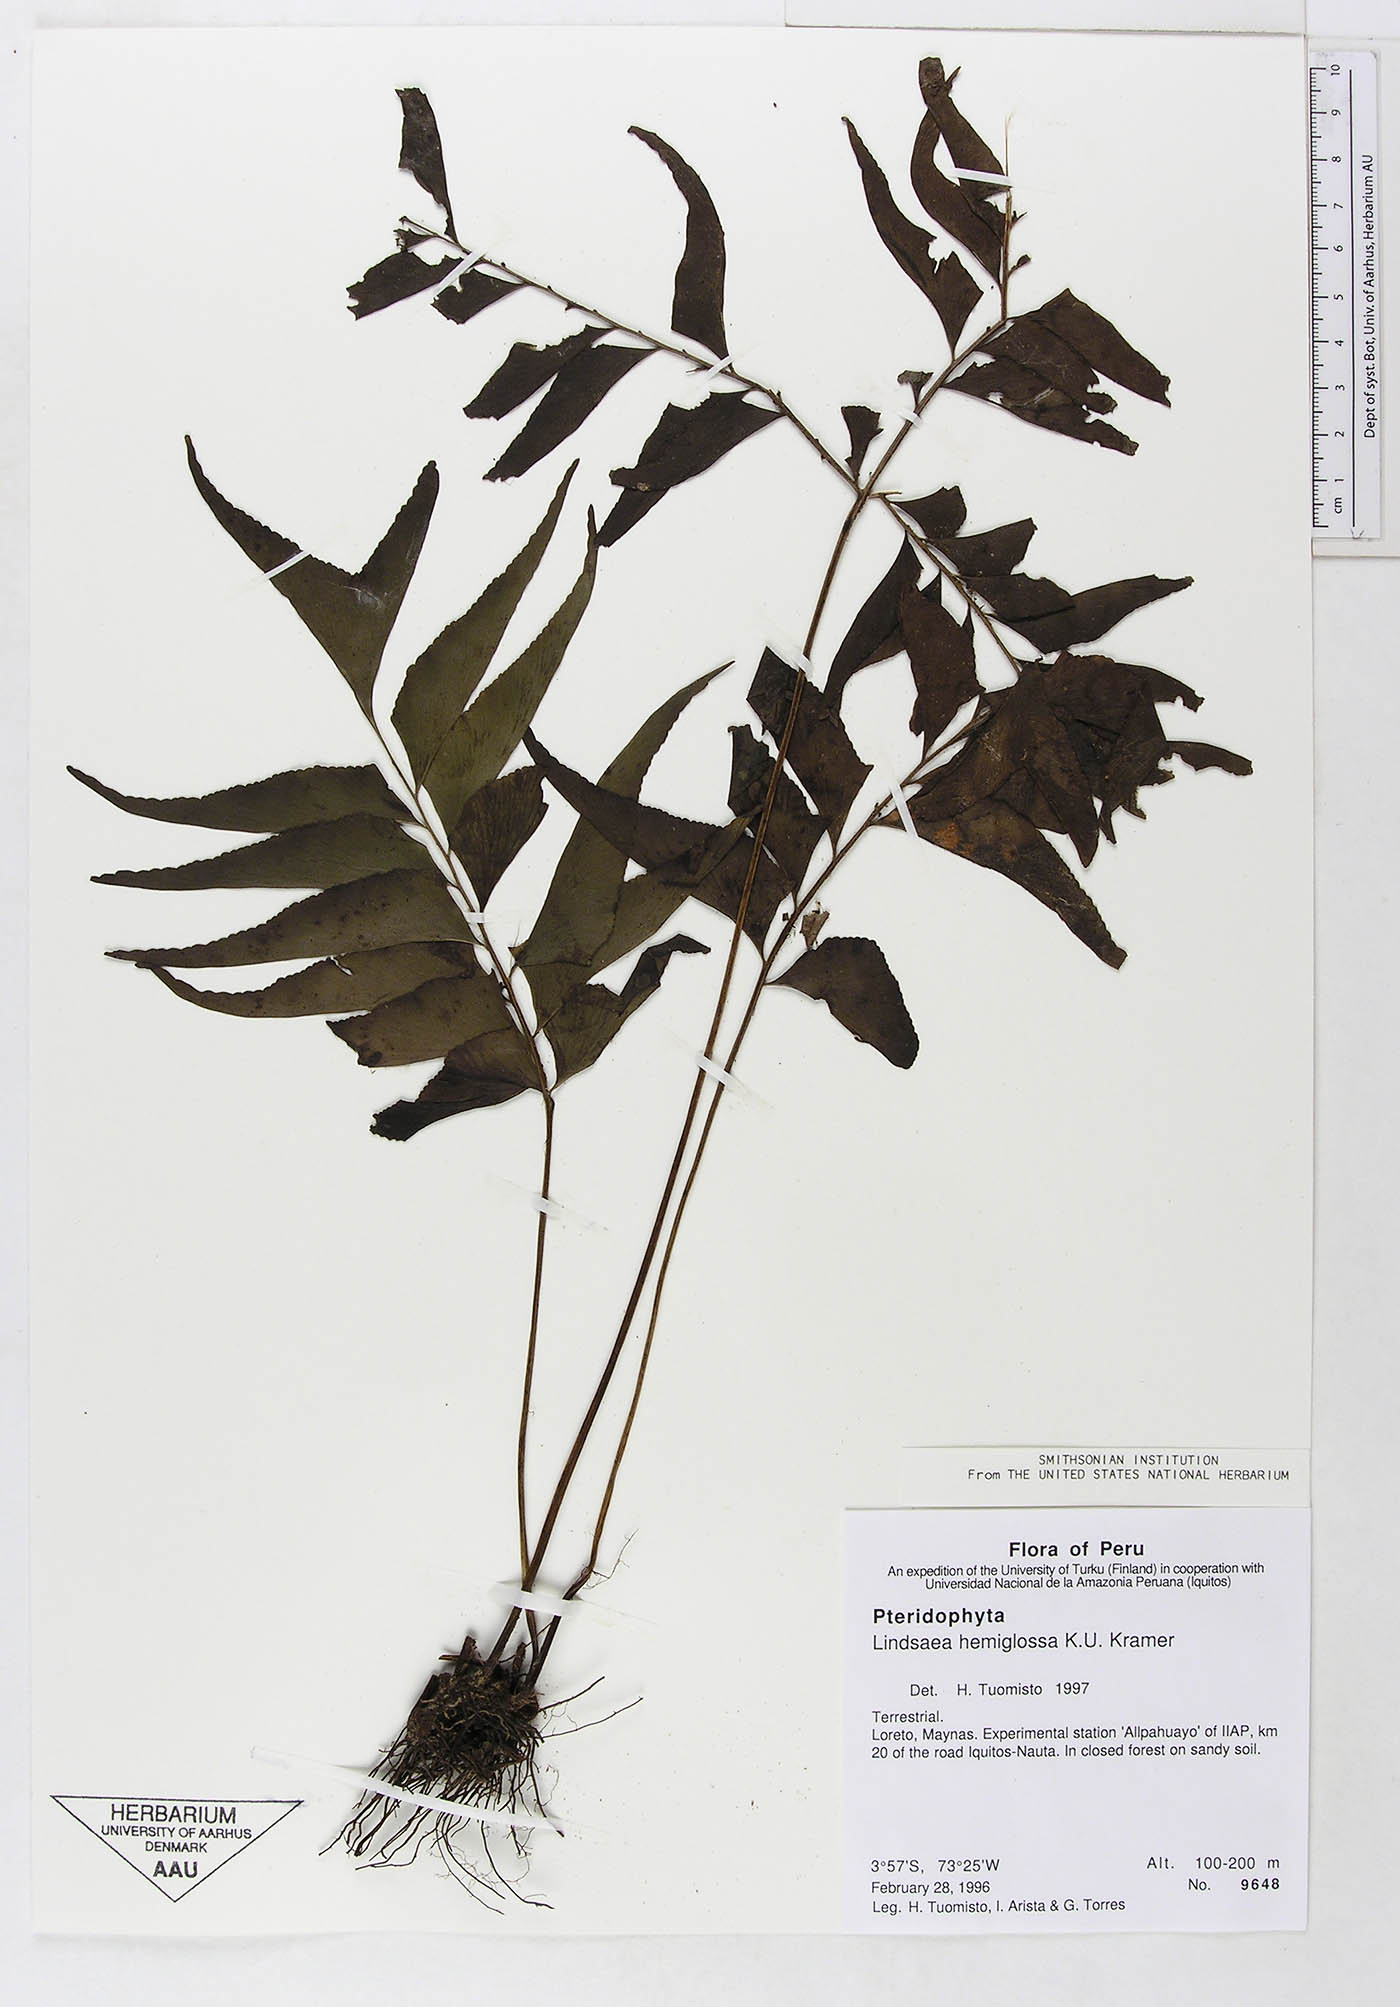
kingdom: Plantae
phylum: Tracheophyta
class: Polypodiopsida
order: Polypodiales
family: Lindsaeaceae
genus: Lindsaea
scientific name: Lindsaea hemiglossa
